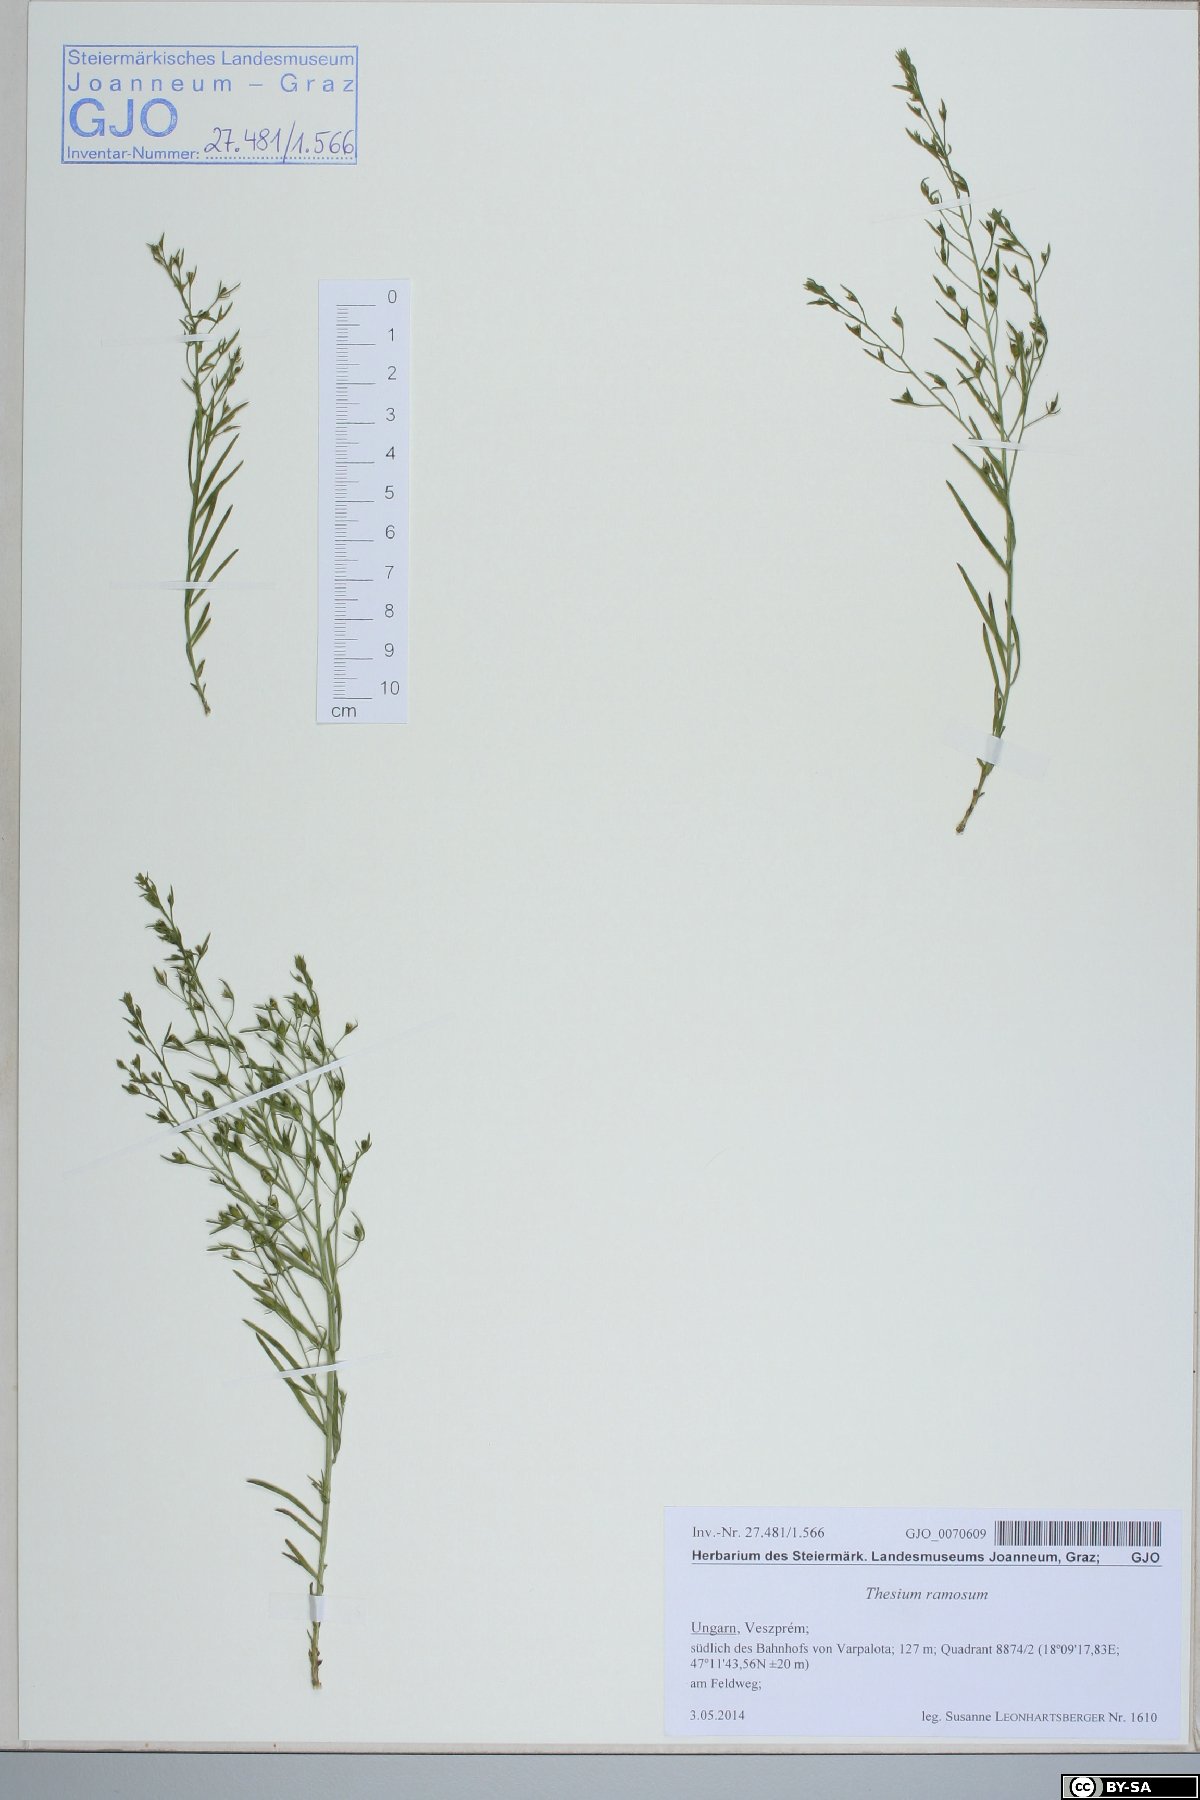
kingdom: Plantae
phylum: Tracheophyta
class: Magnoliopsida
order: Santalales
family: Thesiaceae
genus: Thesium
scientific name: Thesium ramosum
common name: Field thesium
